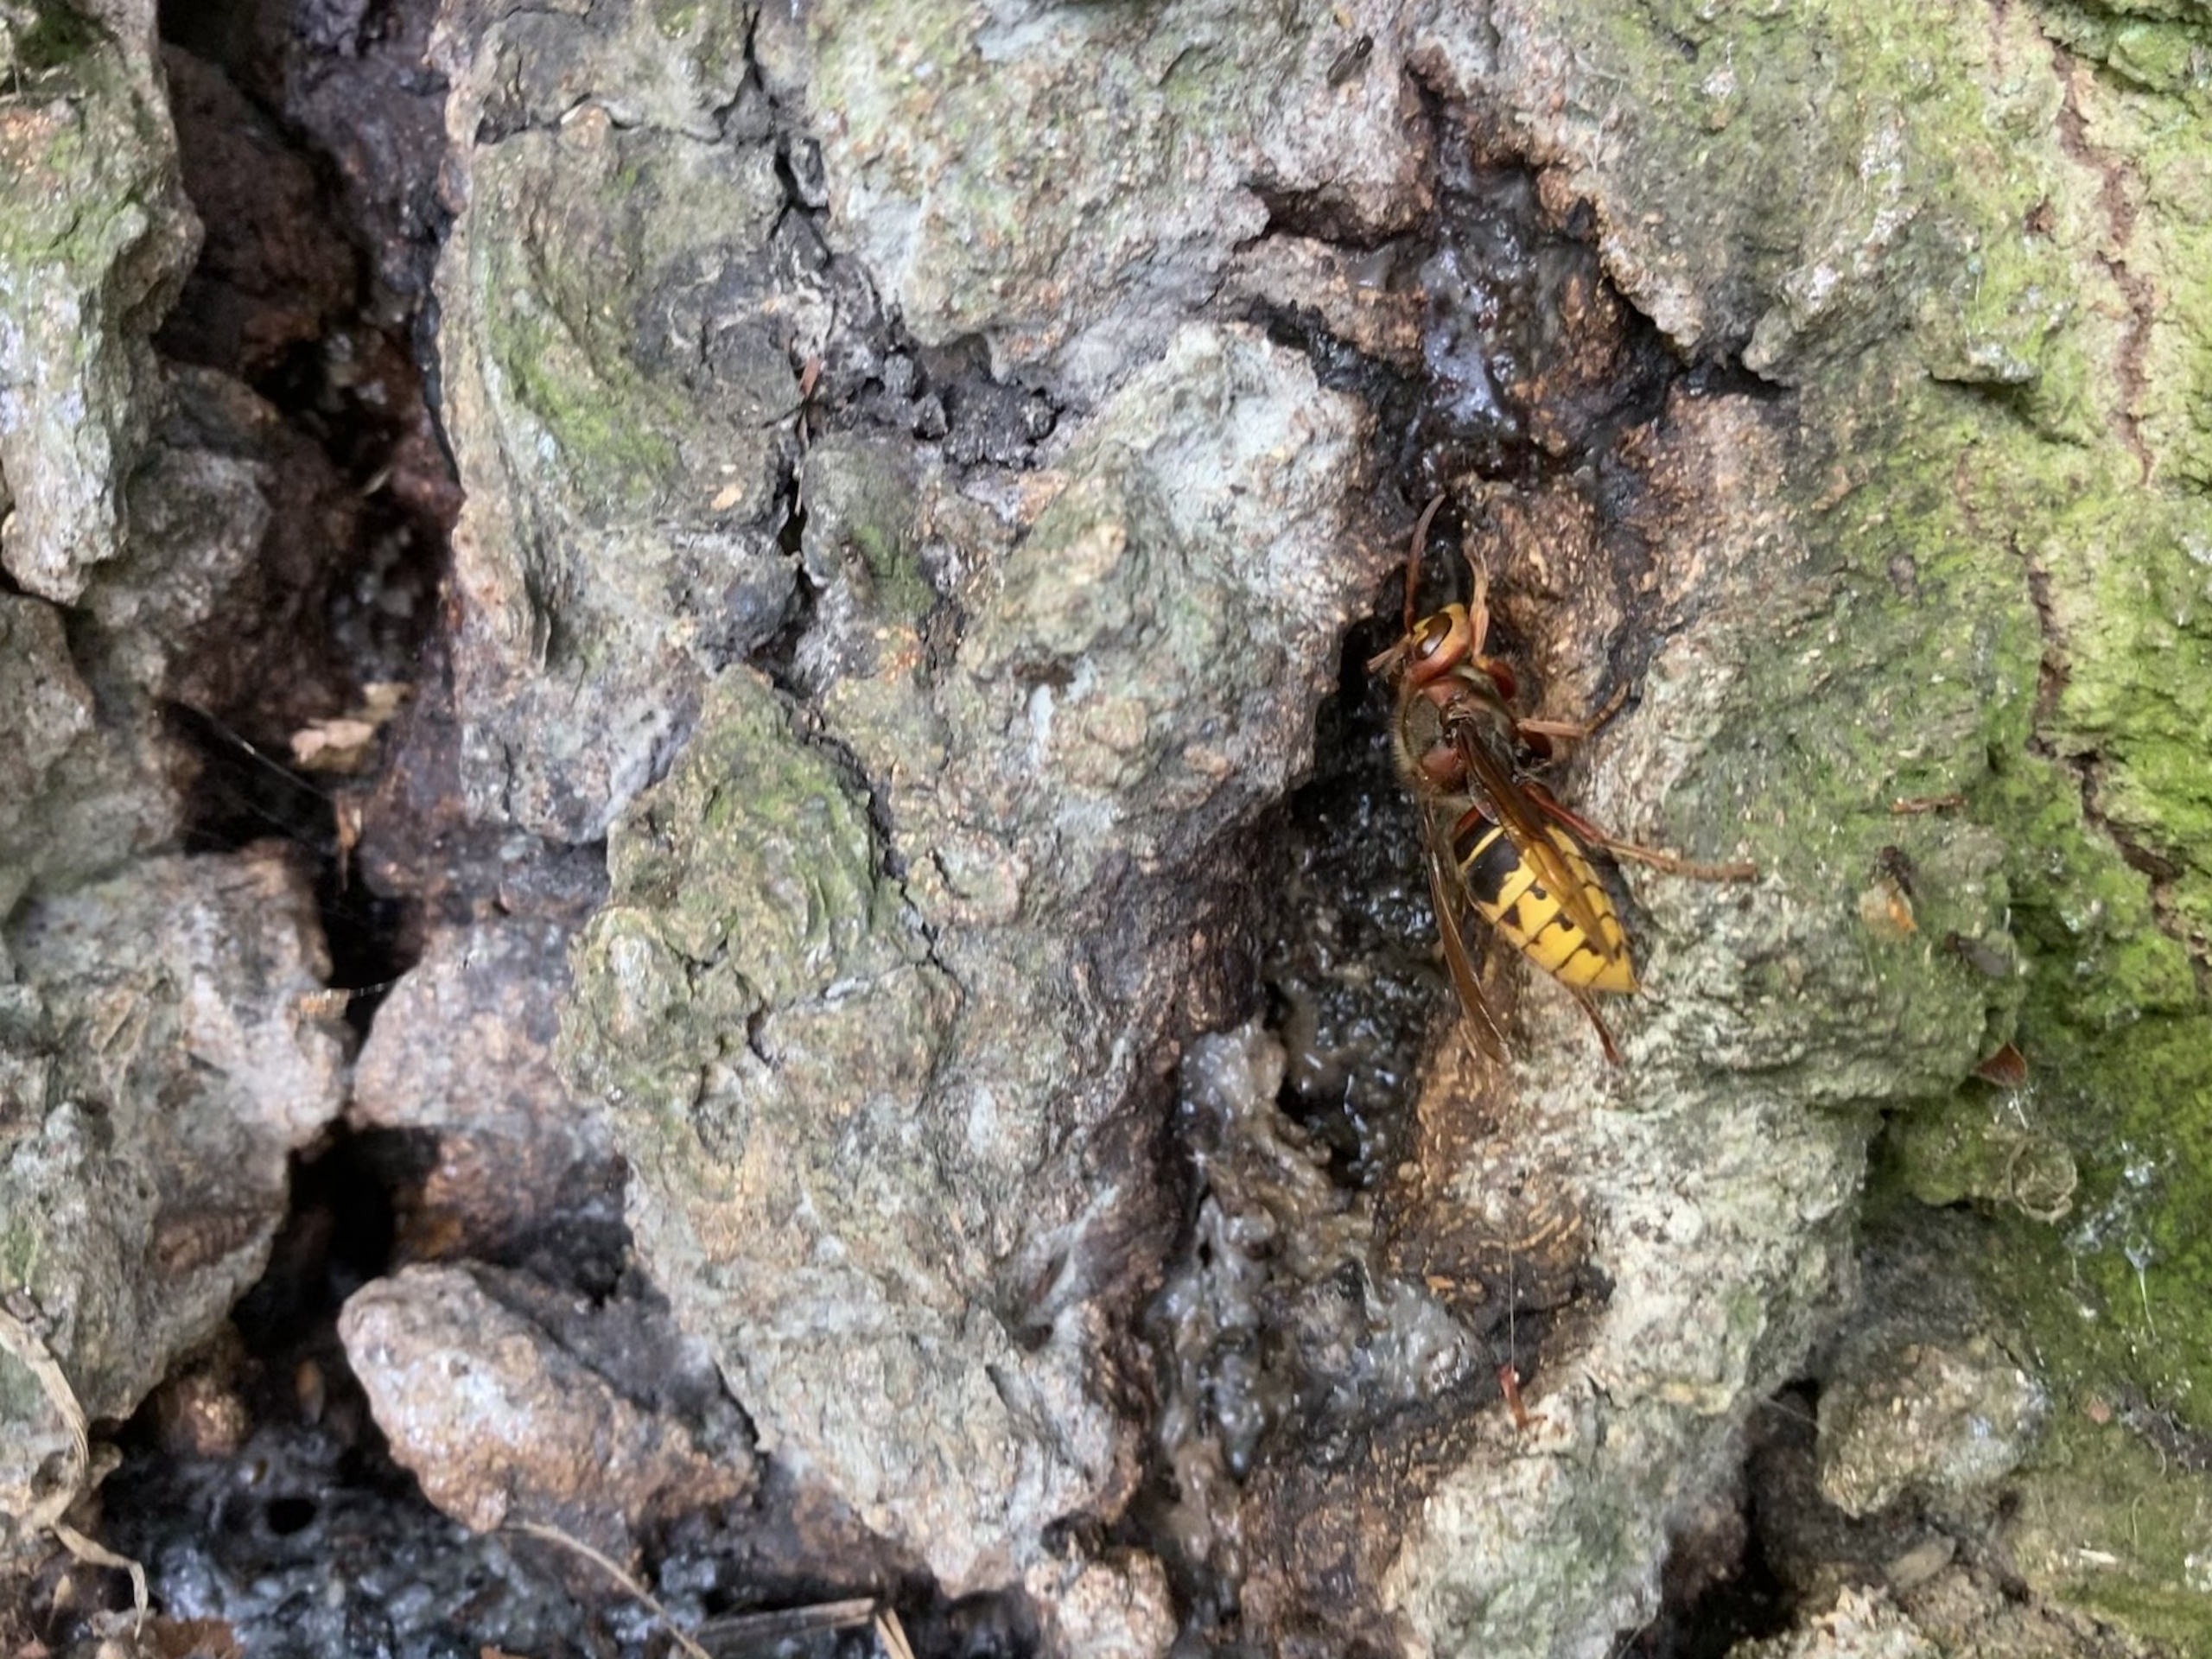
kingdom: Animalia
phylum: Arthropoda
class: Insecta
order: Hymenoptera
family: Vespidae
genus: Vespa
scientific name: Vespa crabro
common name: Stor gedehams
